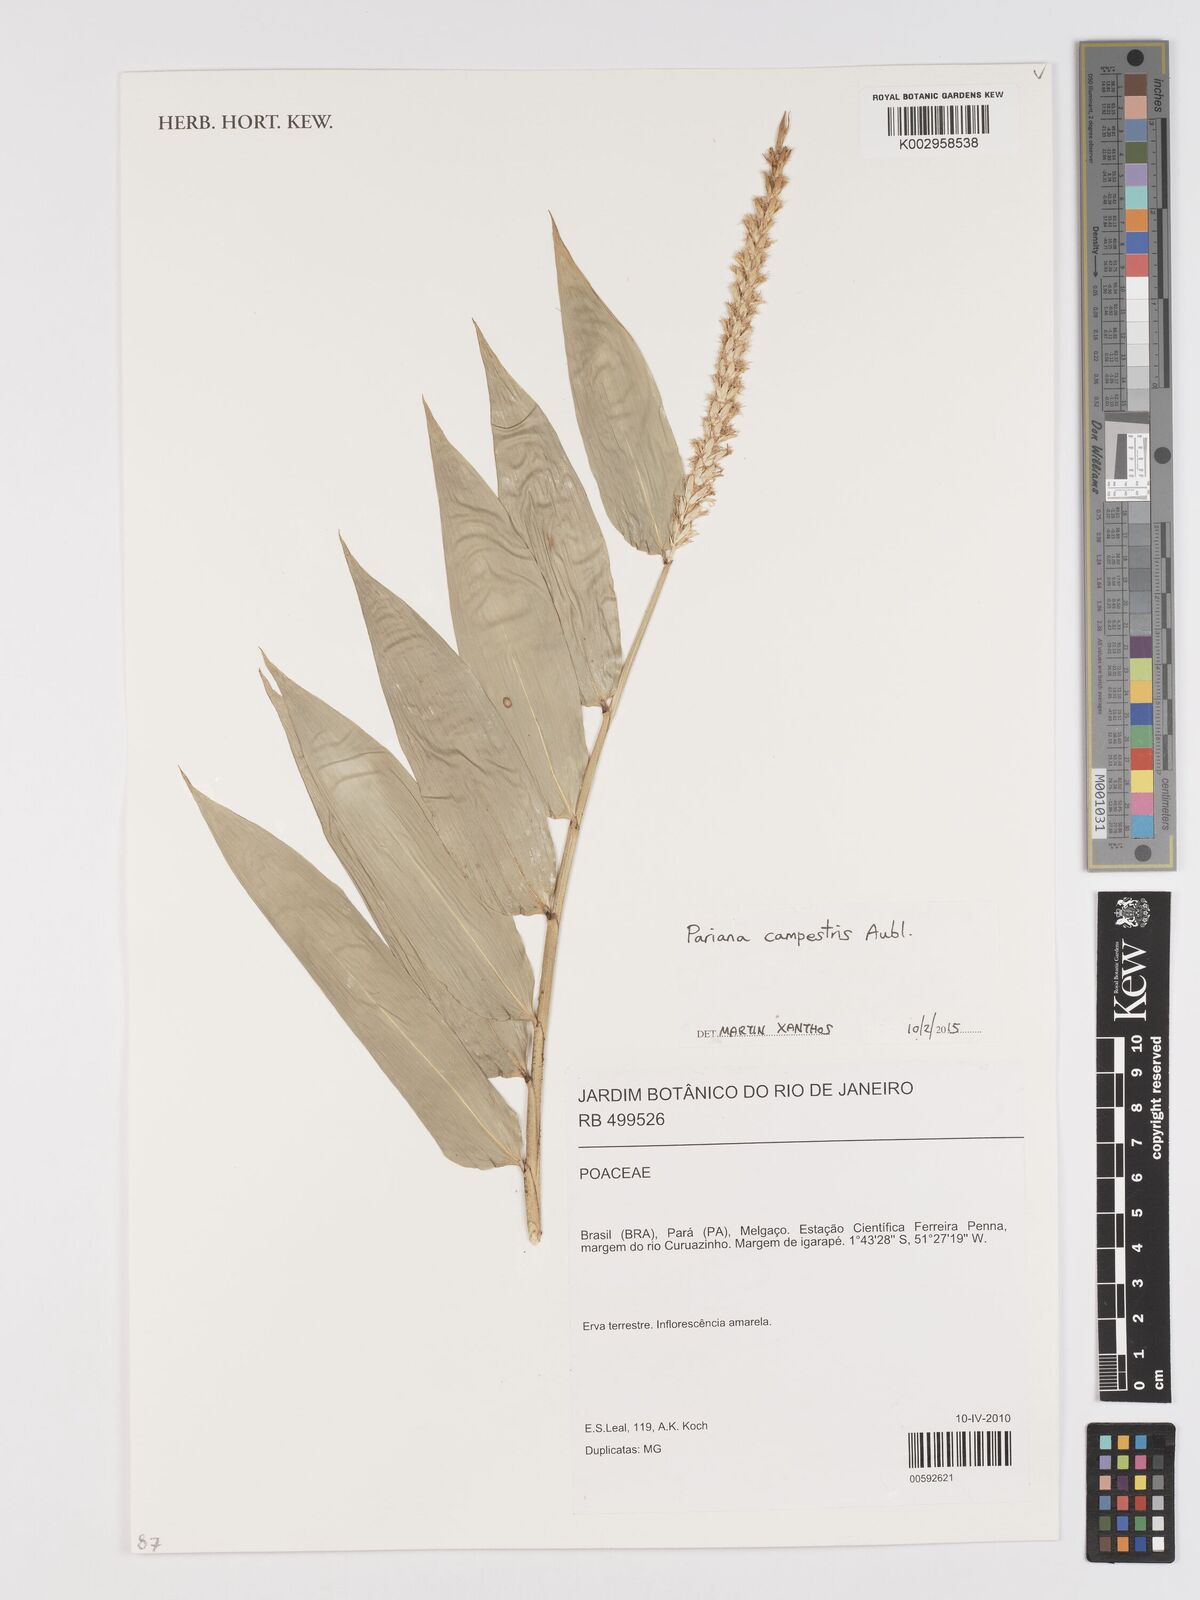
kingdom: Plantae
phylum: Tracheophyta
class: Liliopsida
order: Poales
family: Poaceae
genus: Pariana
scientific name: Pariana campestris
